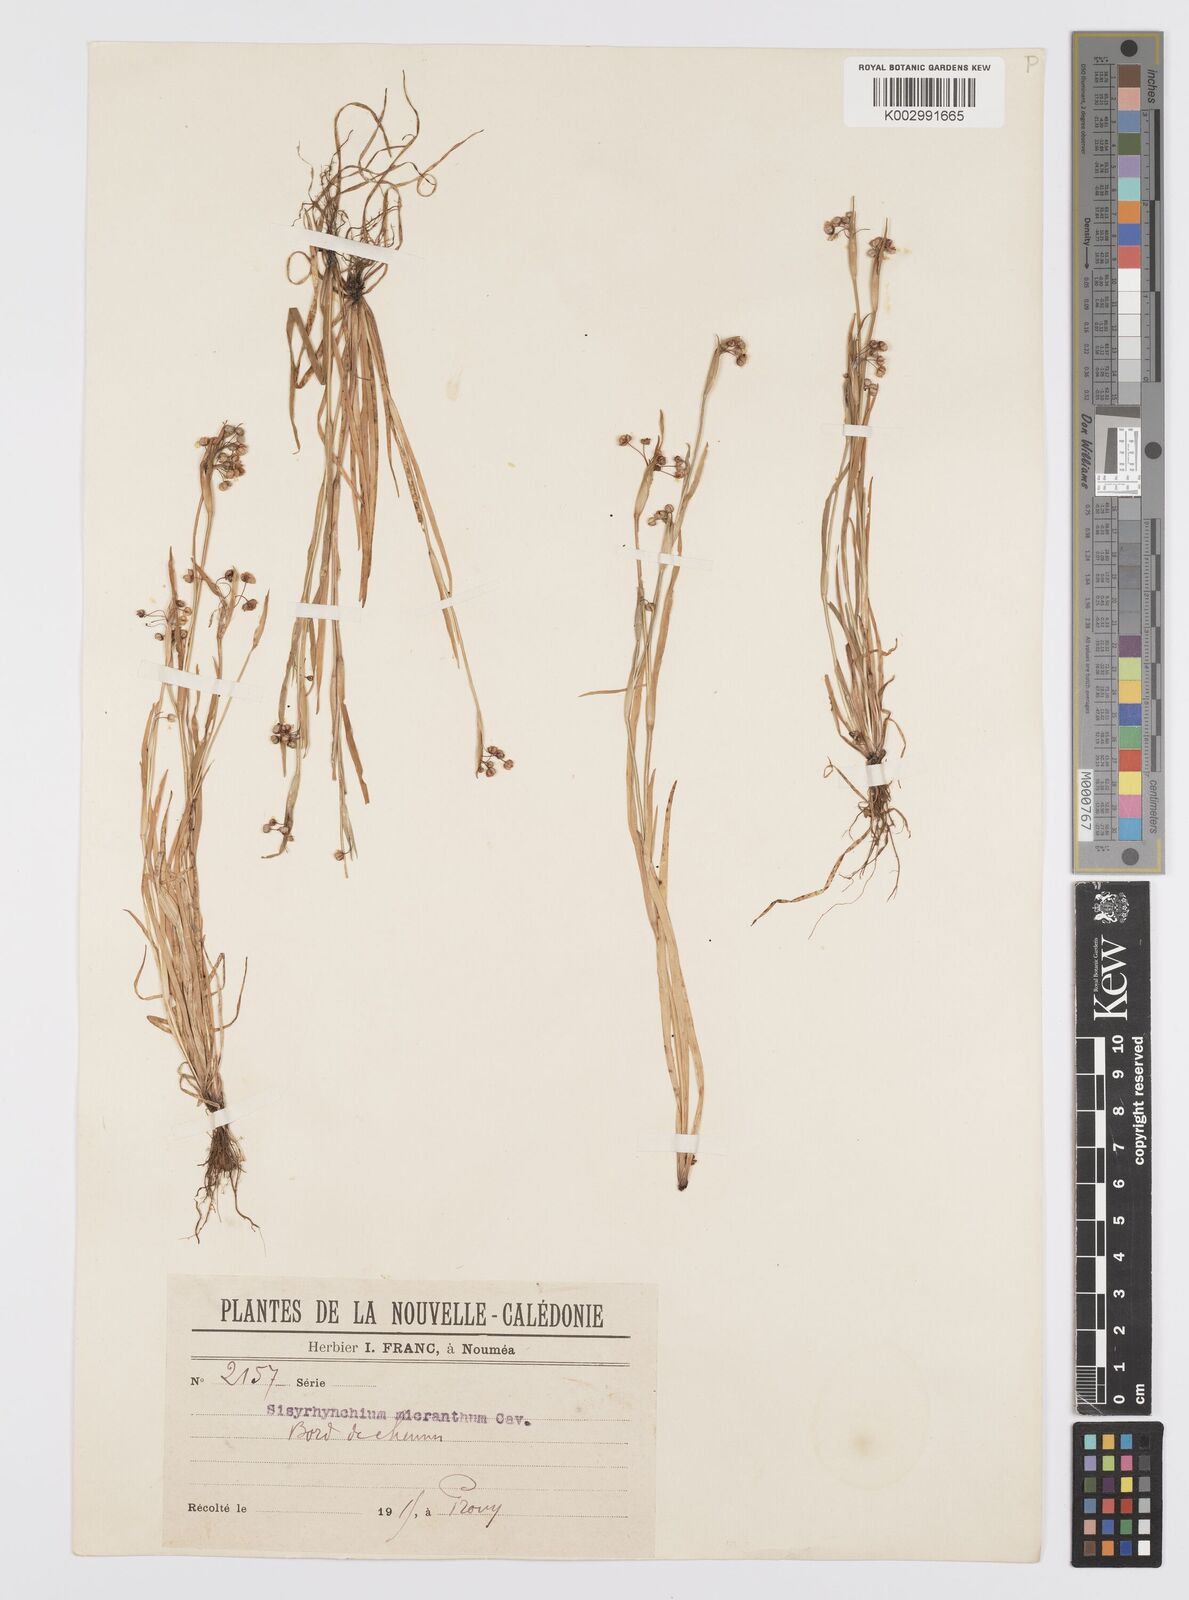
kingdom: Plantae
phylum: Tracheophyta
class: Liliopsida
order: Asparagales
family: Iridaceae
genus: Sisyrinchium
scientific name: Sisyrinchium micranthum
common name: Bermuda pigroot
